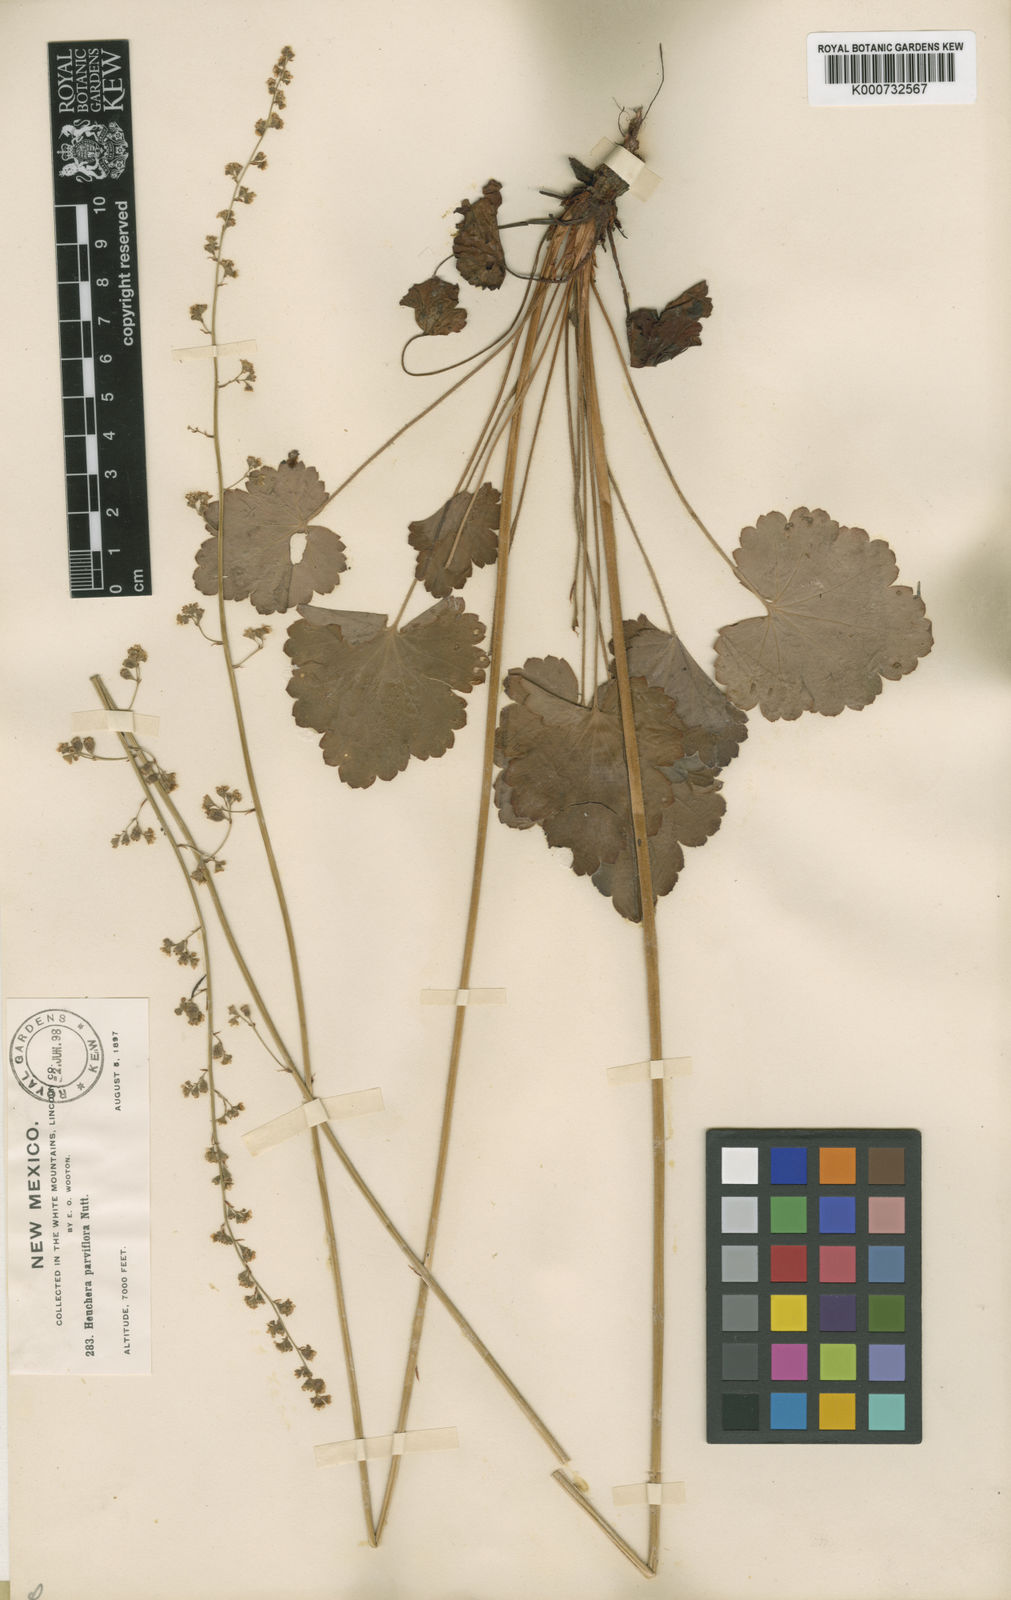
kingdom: Plantae
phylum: Tracheophyta
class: Magnoliopsida
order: Saxifragales
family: Saxifragaceae
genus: Heuchera
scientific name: Heuchera wootonii
